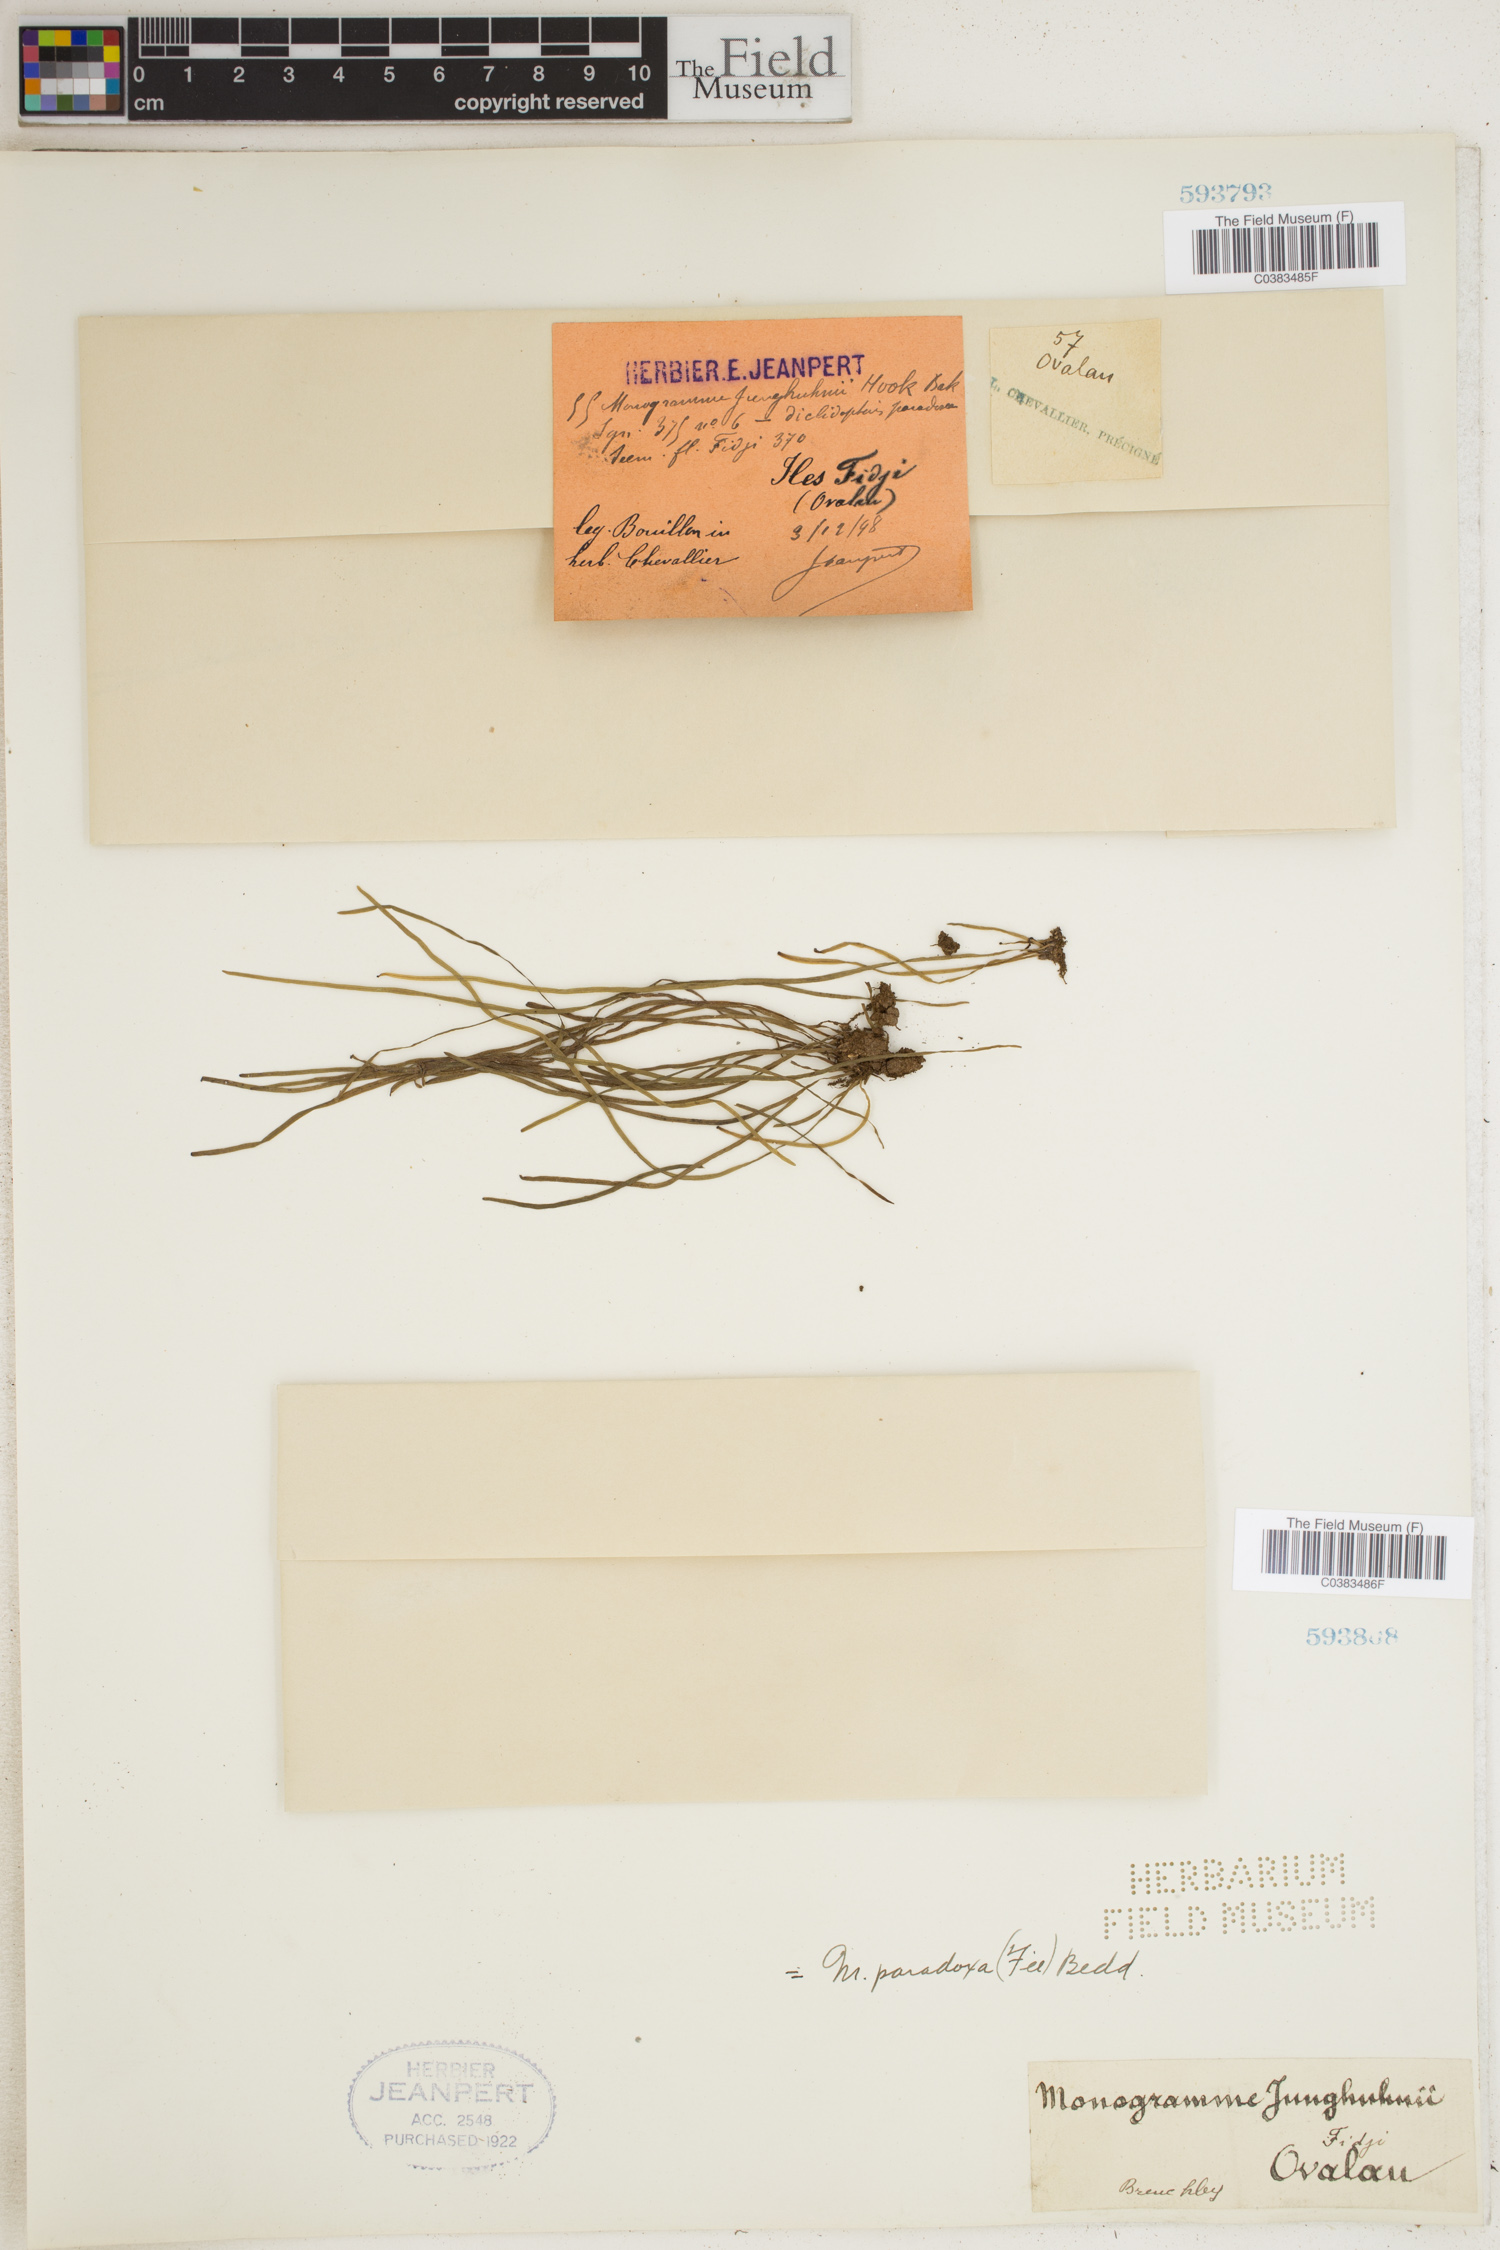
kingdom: Plantae
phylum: Tracheophyta
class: Polypodiopsida
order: Polypodiales
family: Pteridaceae
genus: Vaginularia
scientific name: Vaginularia paradoxa
